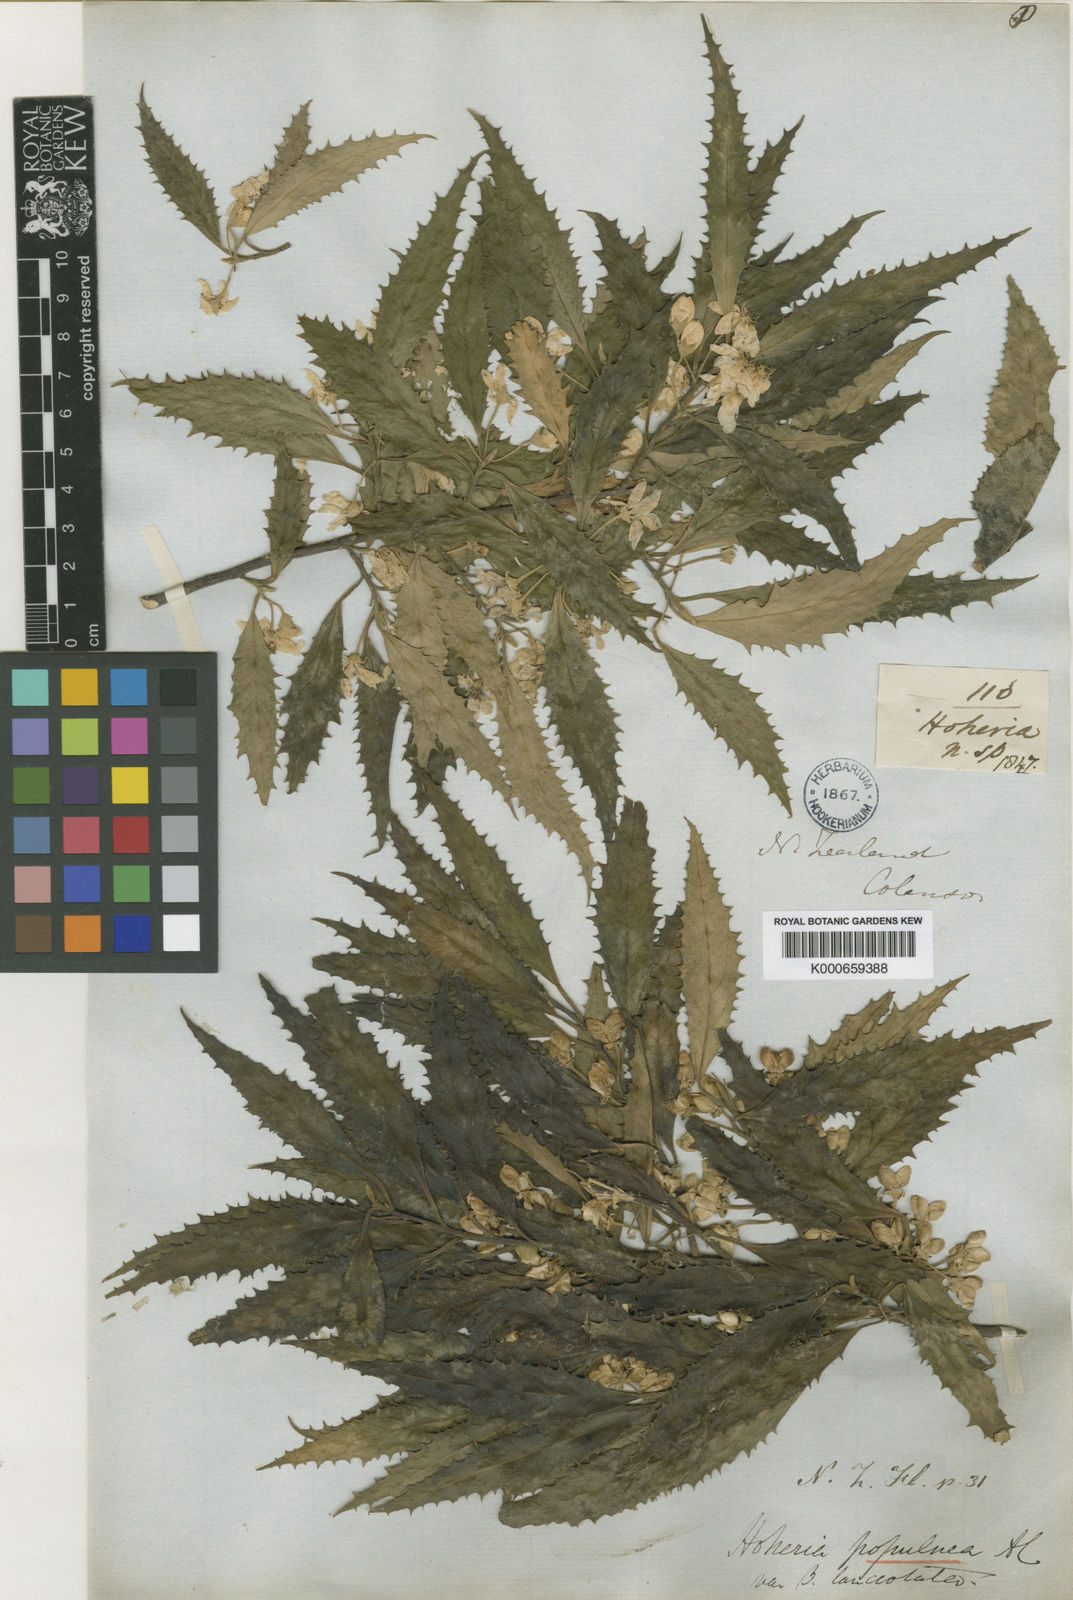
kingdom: Plantae
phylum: Tracheophyta
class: Magnoliopsida
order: Malvales
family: Malvaceae
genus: Hoheria
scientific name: Hoheria sexstylosa
